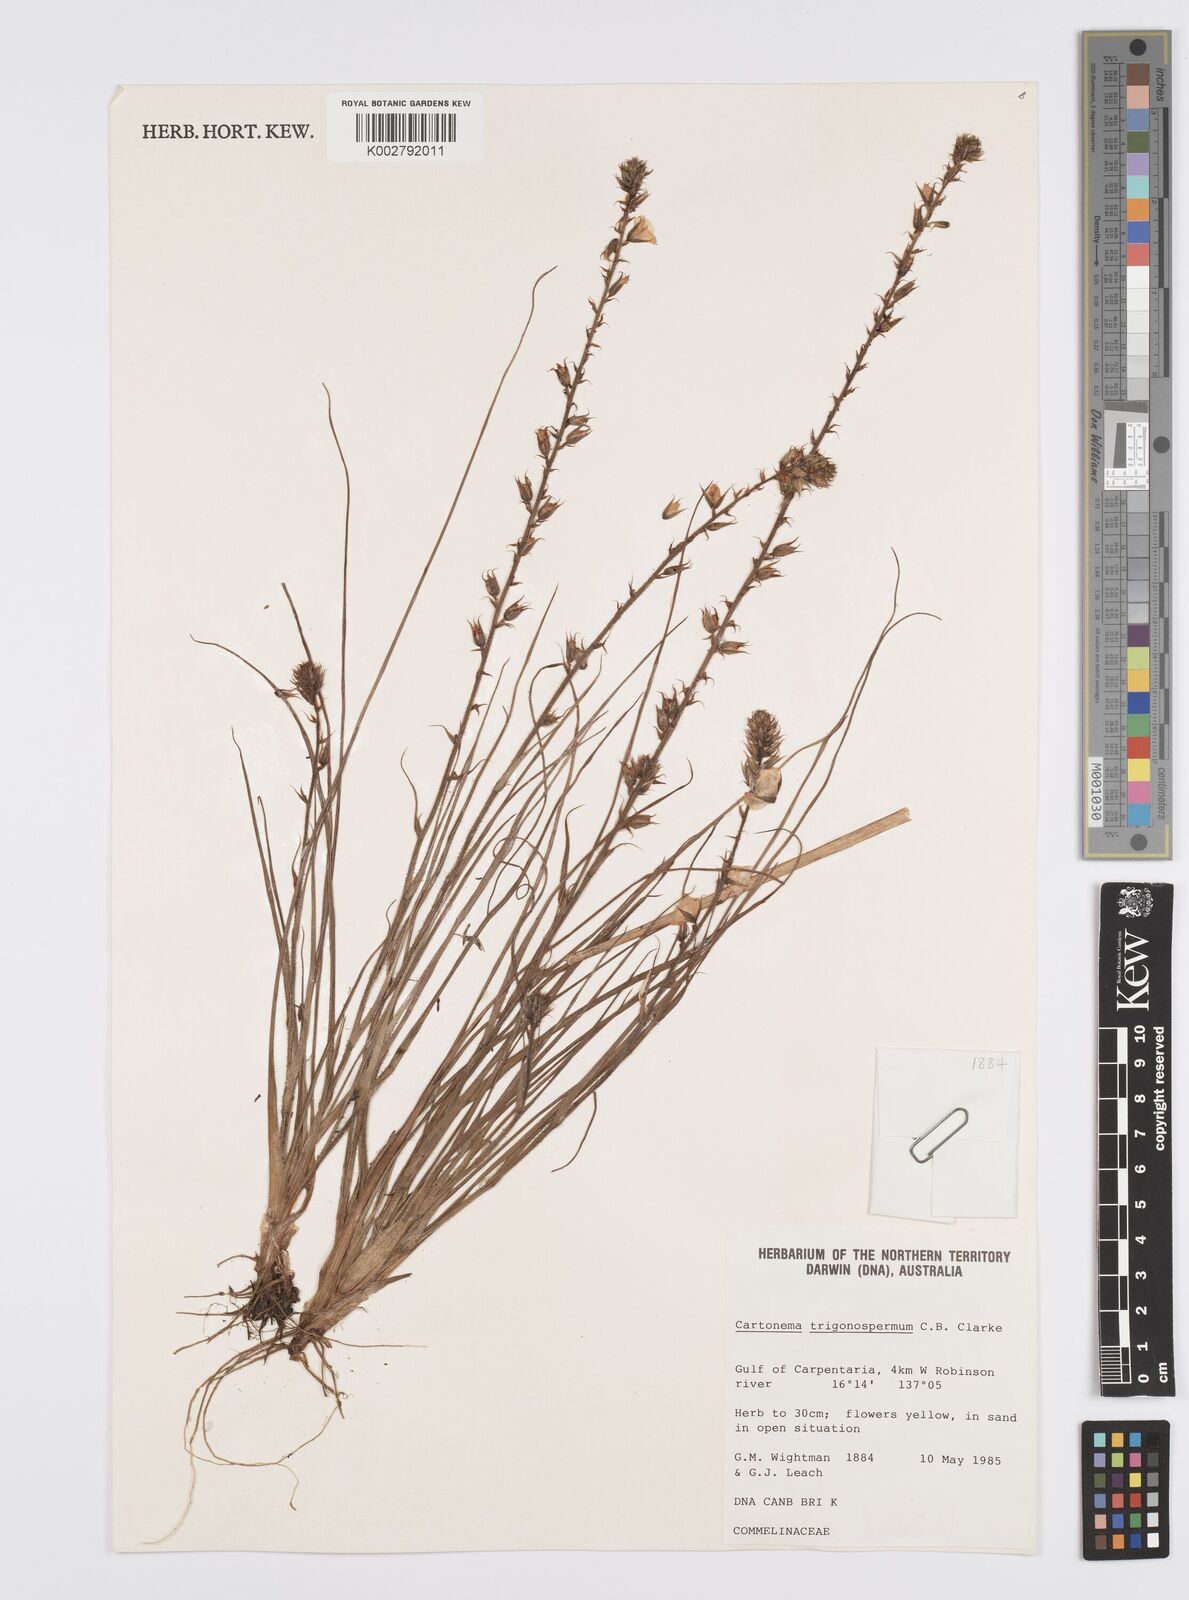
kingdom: Plantae
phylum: Tracheophyta
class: Liliopsida
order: Commelinales
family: Commelinaceae
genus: Cartonema
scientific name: Cartonema trigonospermum
